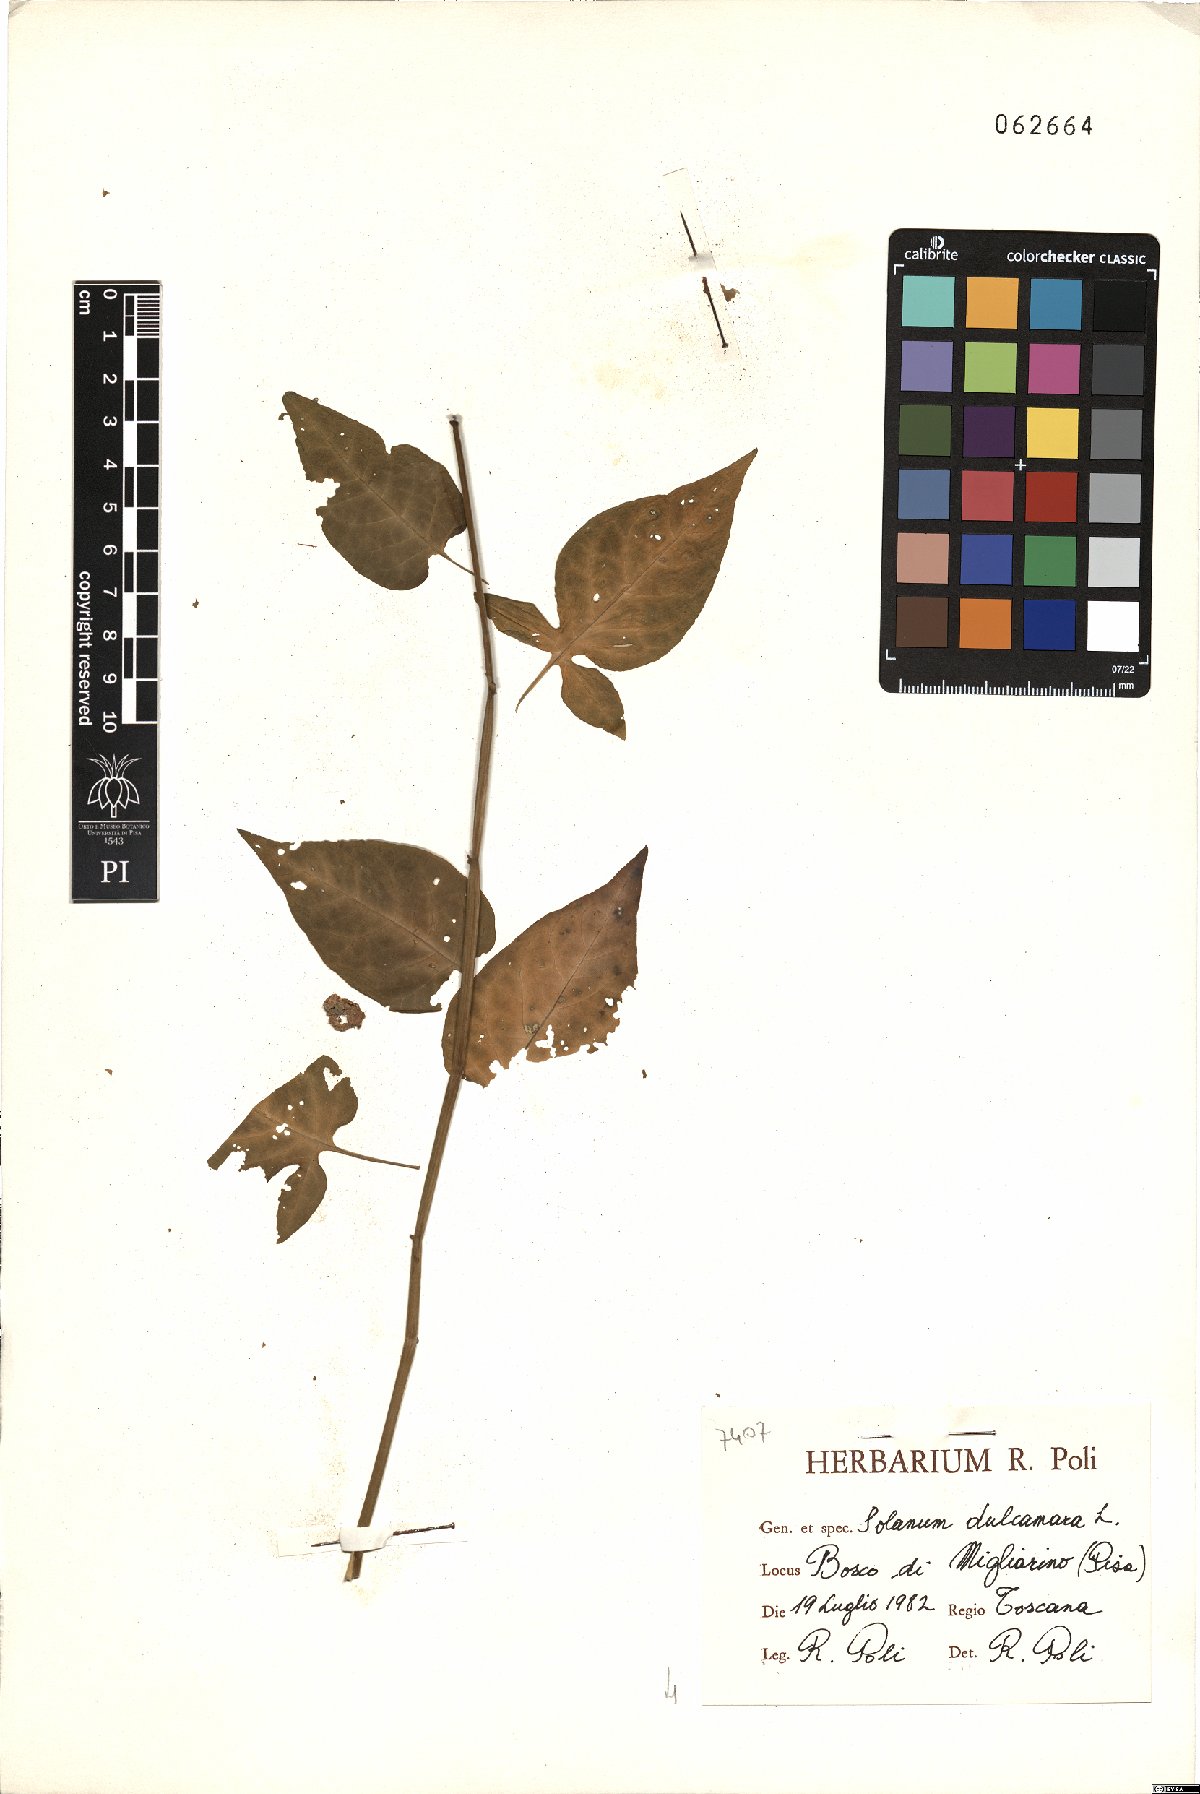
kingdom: Plantae
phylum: Tracheophyta
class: Magnoliopsida
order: Solanales
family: Solanaceae
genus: Solanum
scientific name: Solanum dulcamara
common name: Climbing nightshade
